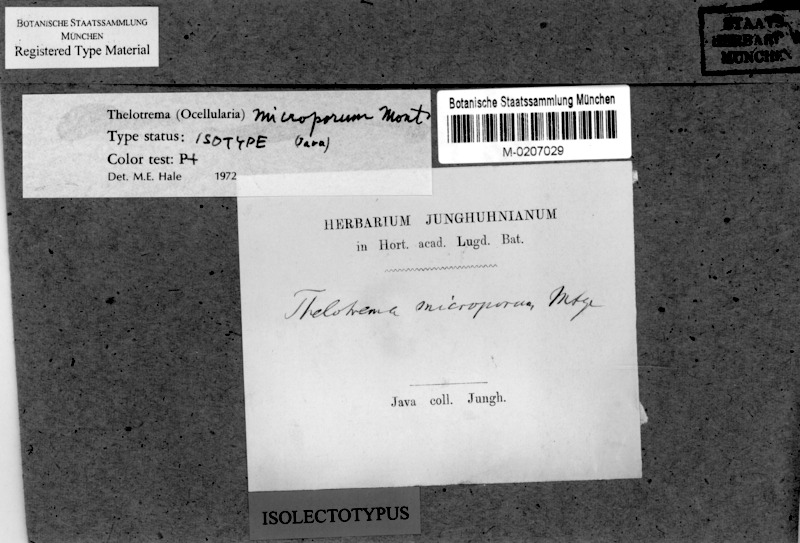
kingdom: Fungi
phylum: Ascomycota
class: Lecanoromycetes
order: Ostropales
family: Graphidaceae
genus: Myriotrema
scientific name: Myriotrema microporum
